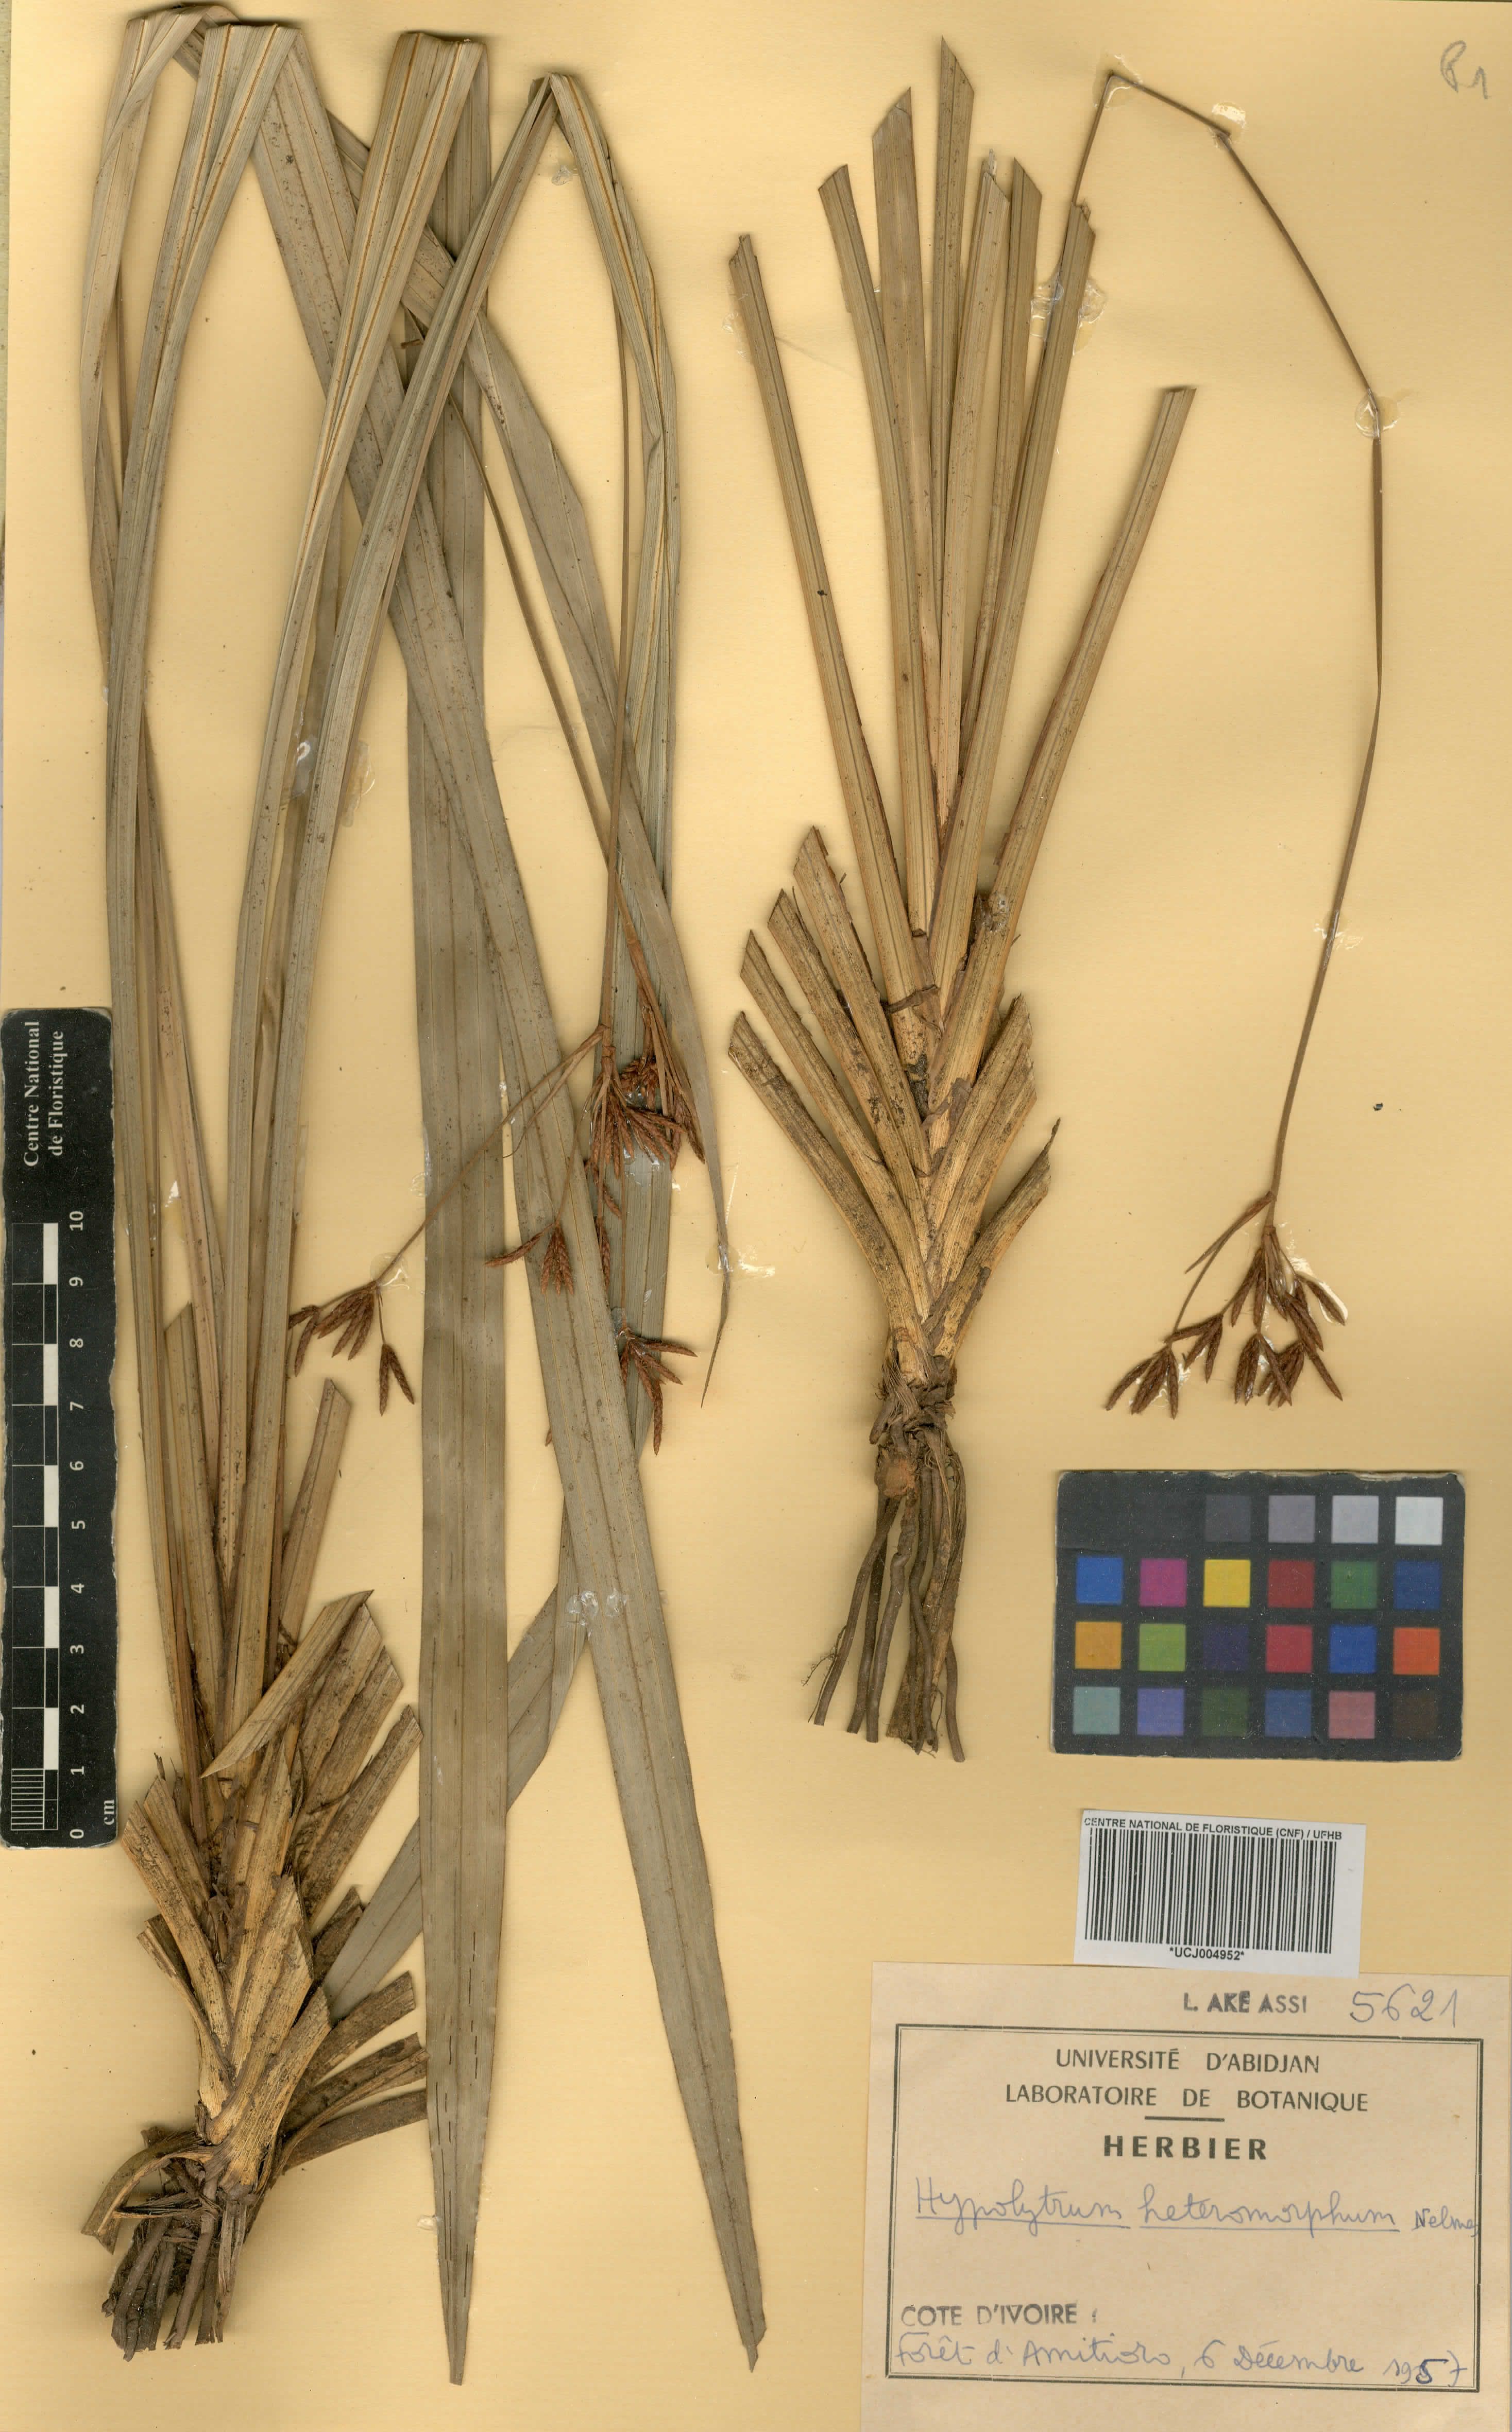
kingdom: Plantae
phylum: Tracheophyta
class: Liliopsida
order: Poales
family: Cyperaceae
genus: Hypolytrum
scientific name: Hypolytrum heteromorphum
